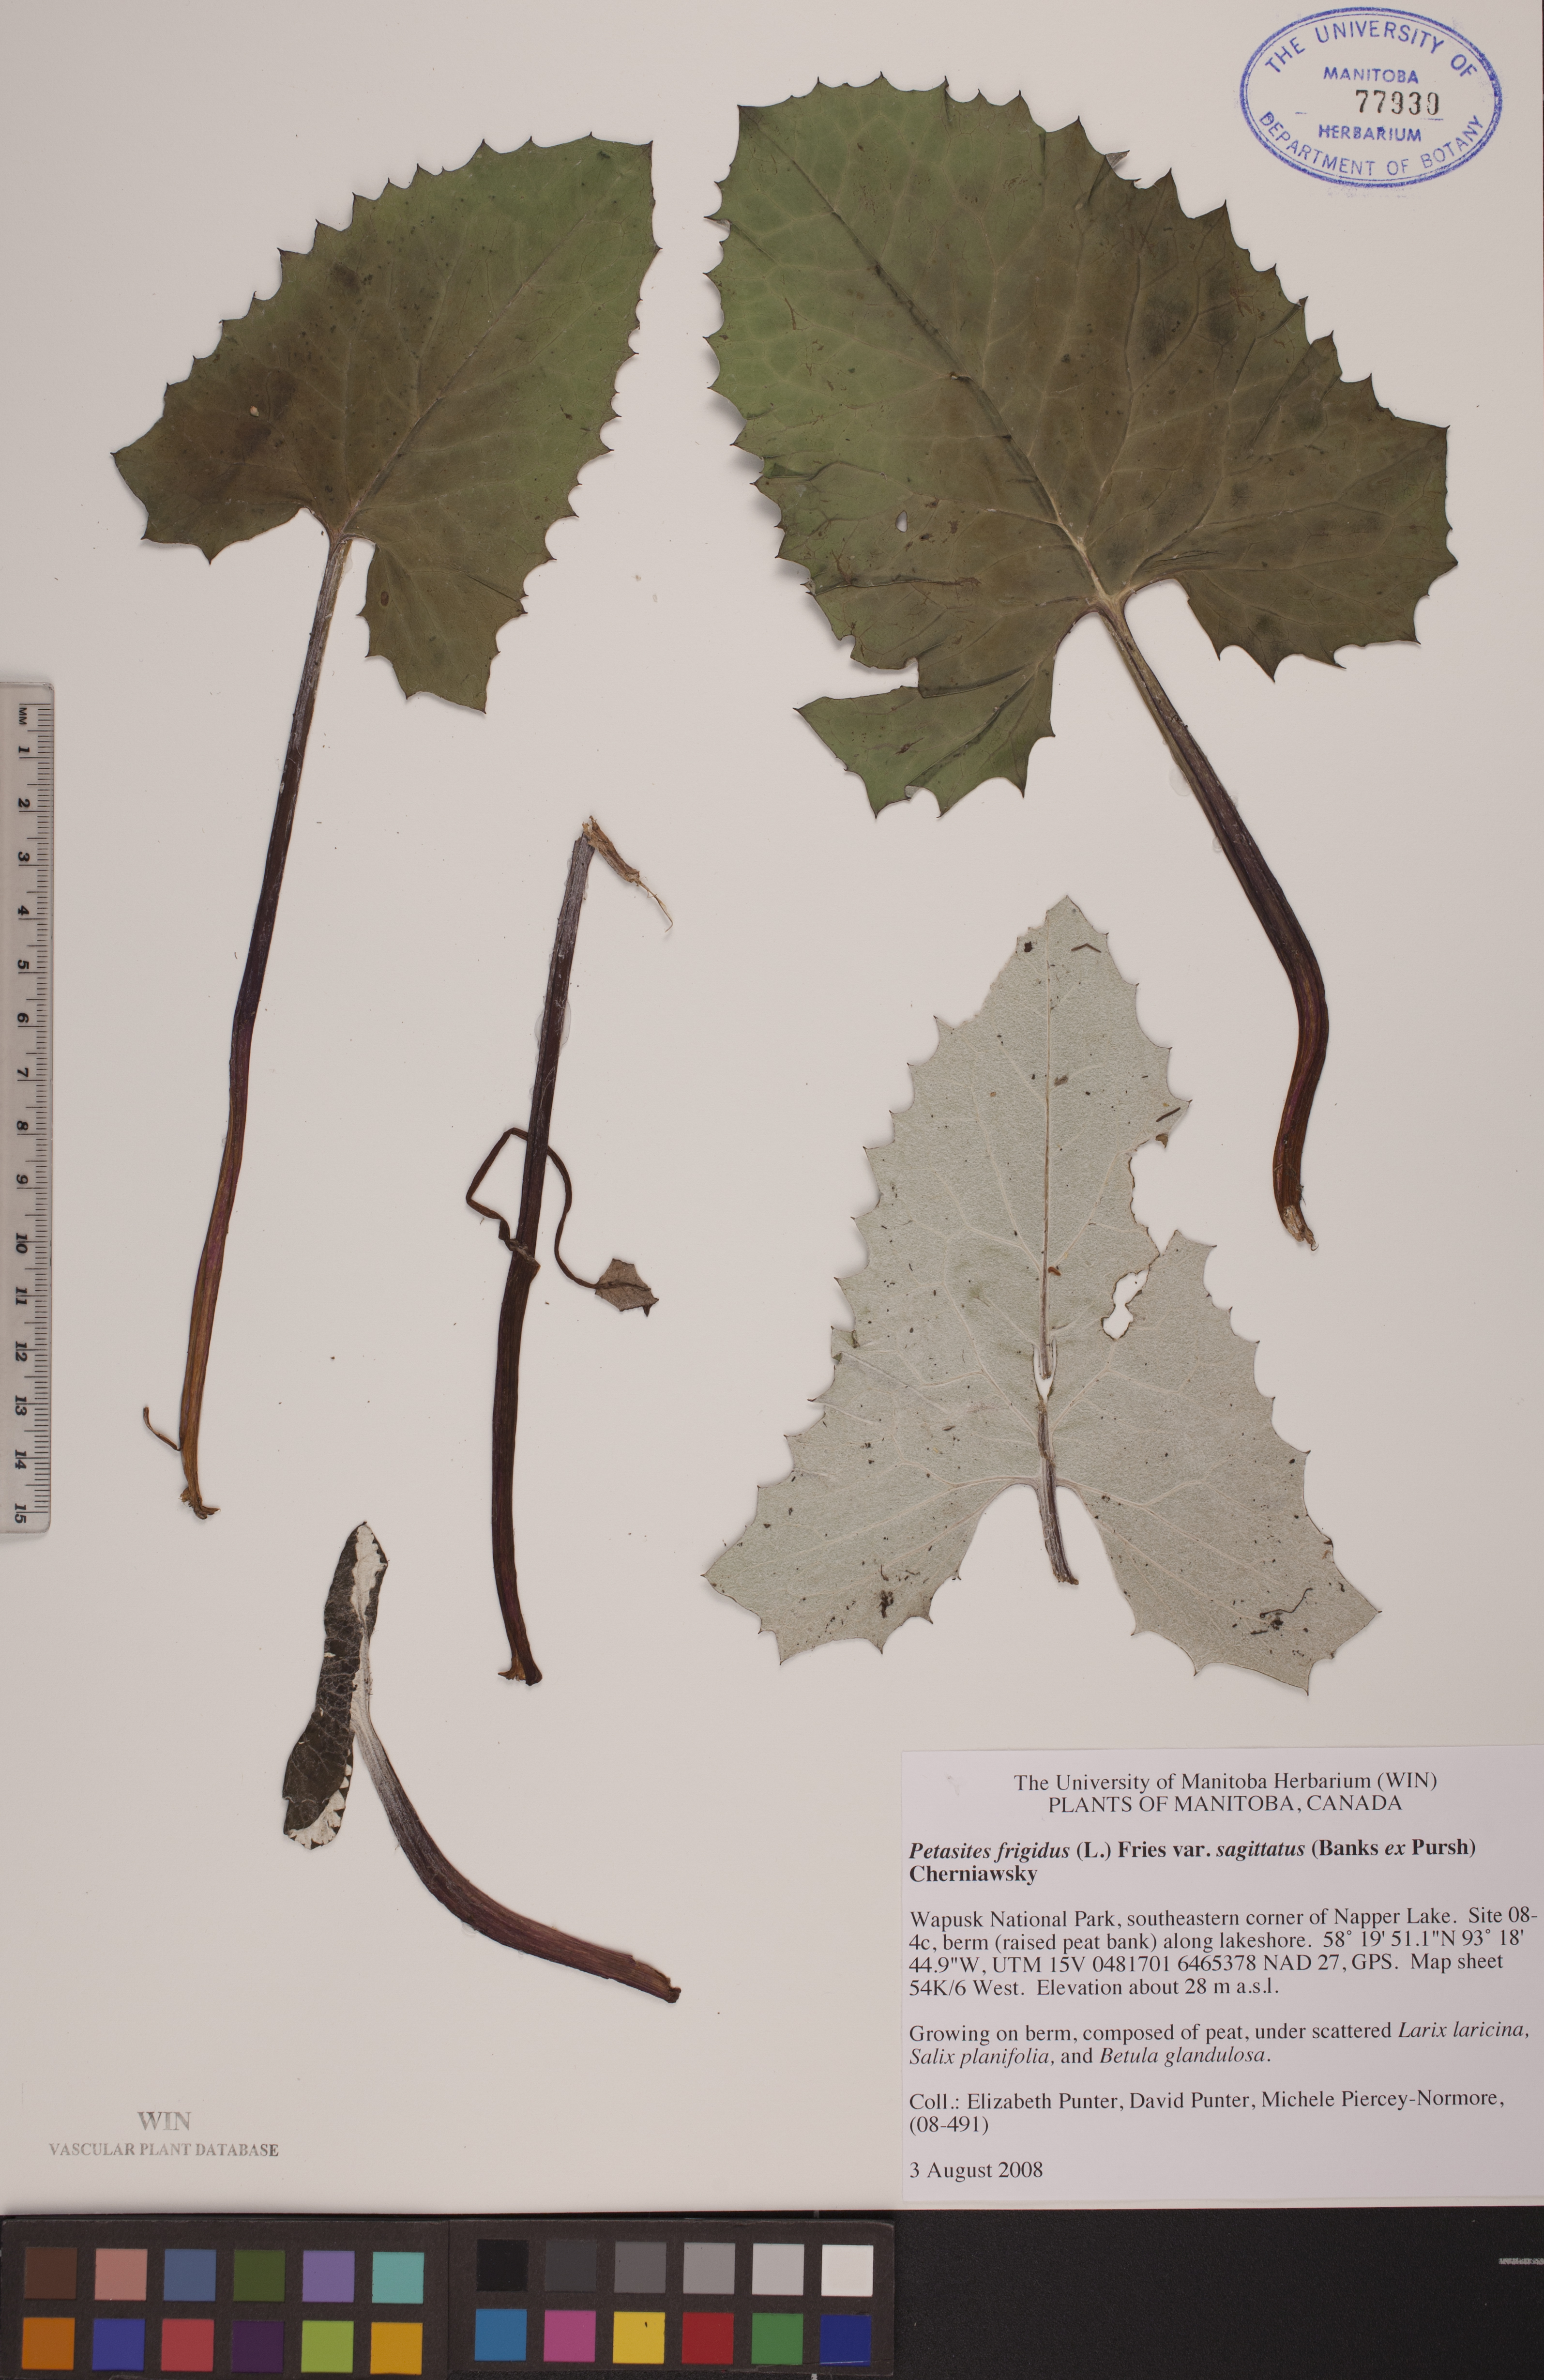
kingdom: Plantae
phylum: Tracheophyta
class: Magnoliopsida
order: Asterales
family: Asteraceae
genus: Petasites
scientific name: Petasites frigidus
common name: Arctic butterbur
